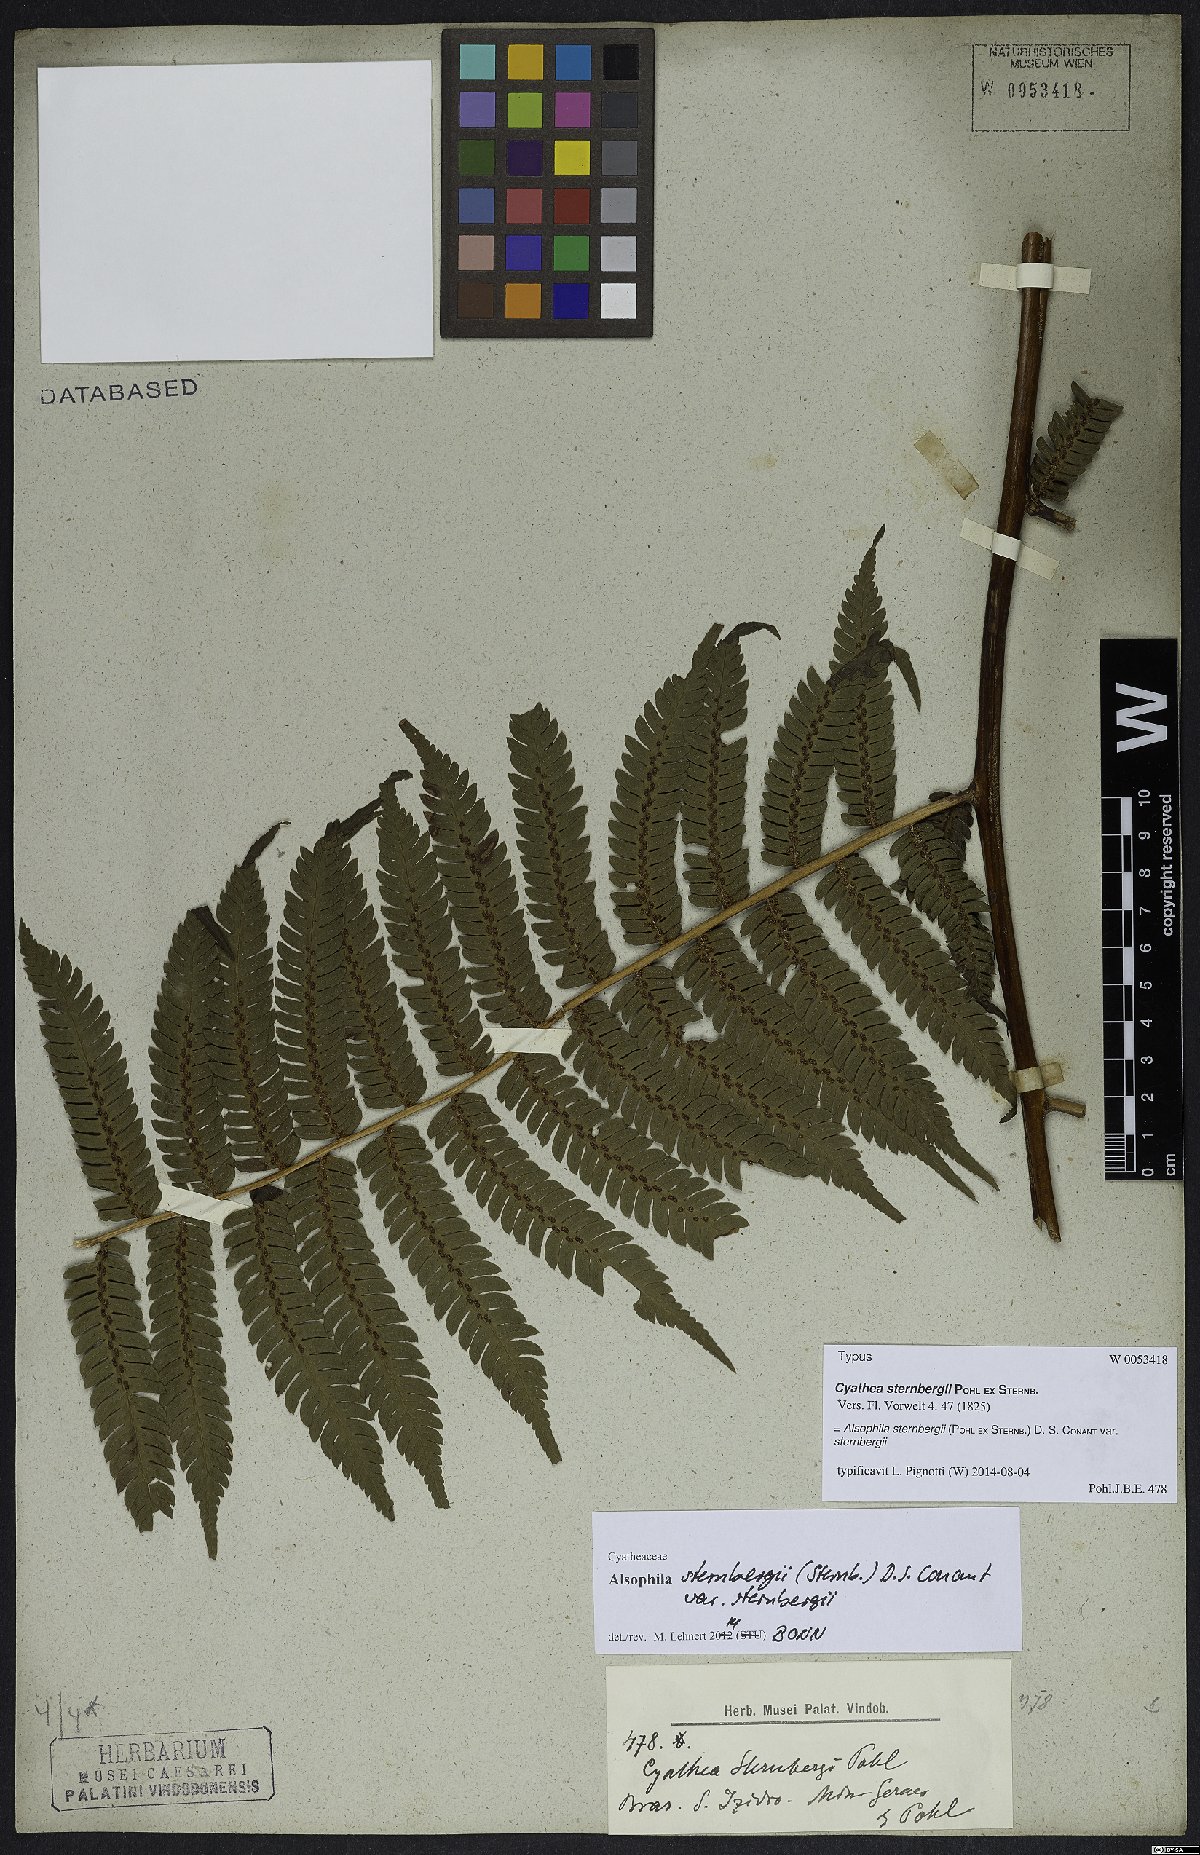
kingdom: Plantae
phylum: Tracheophyta
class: Polypodiopsida
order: Cyatheales
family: Cyatheaceae
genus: Alsophila
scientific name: Alsophila sternbergii
